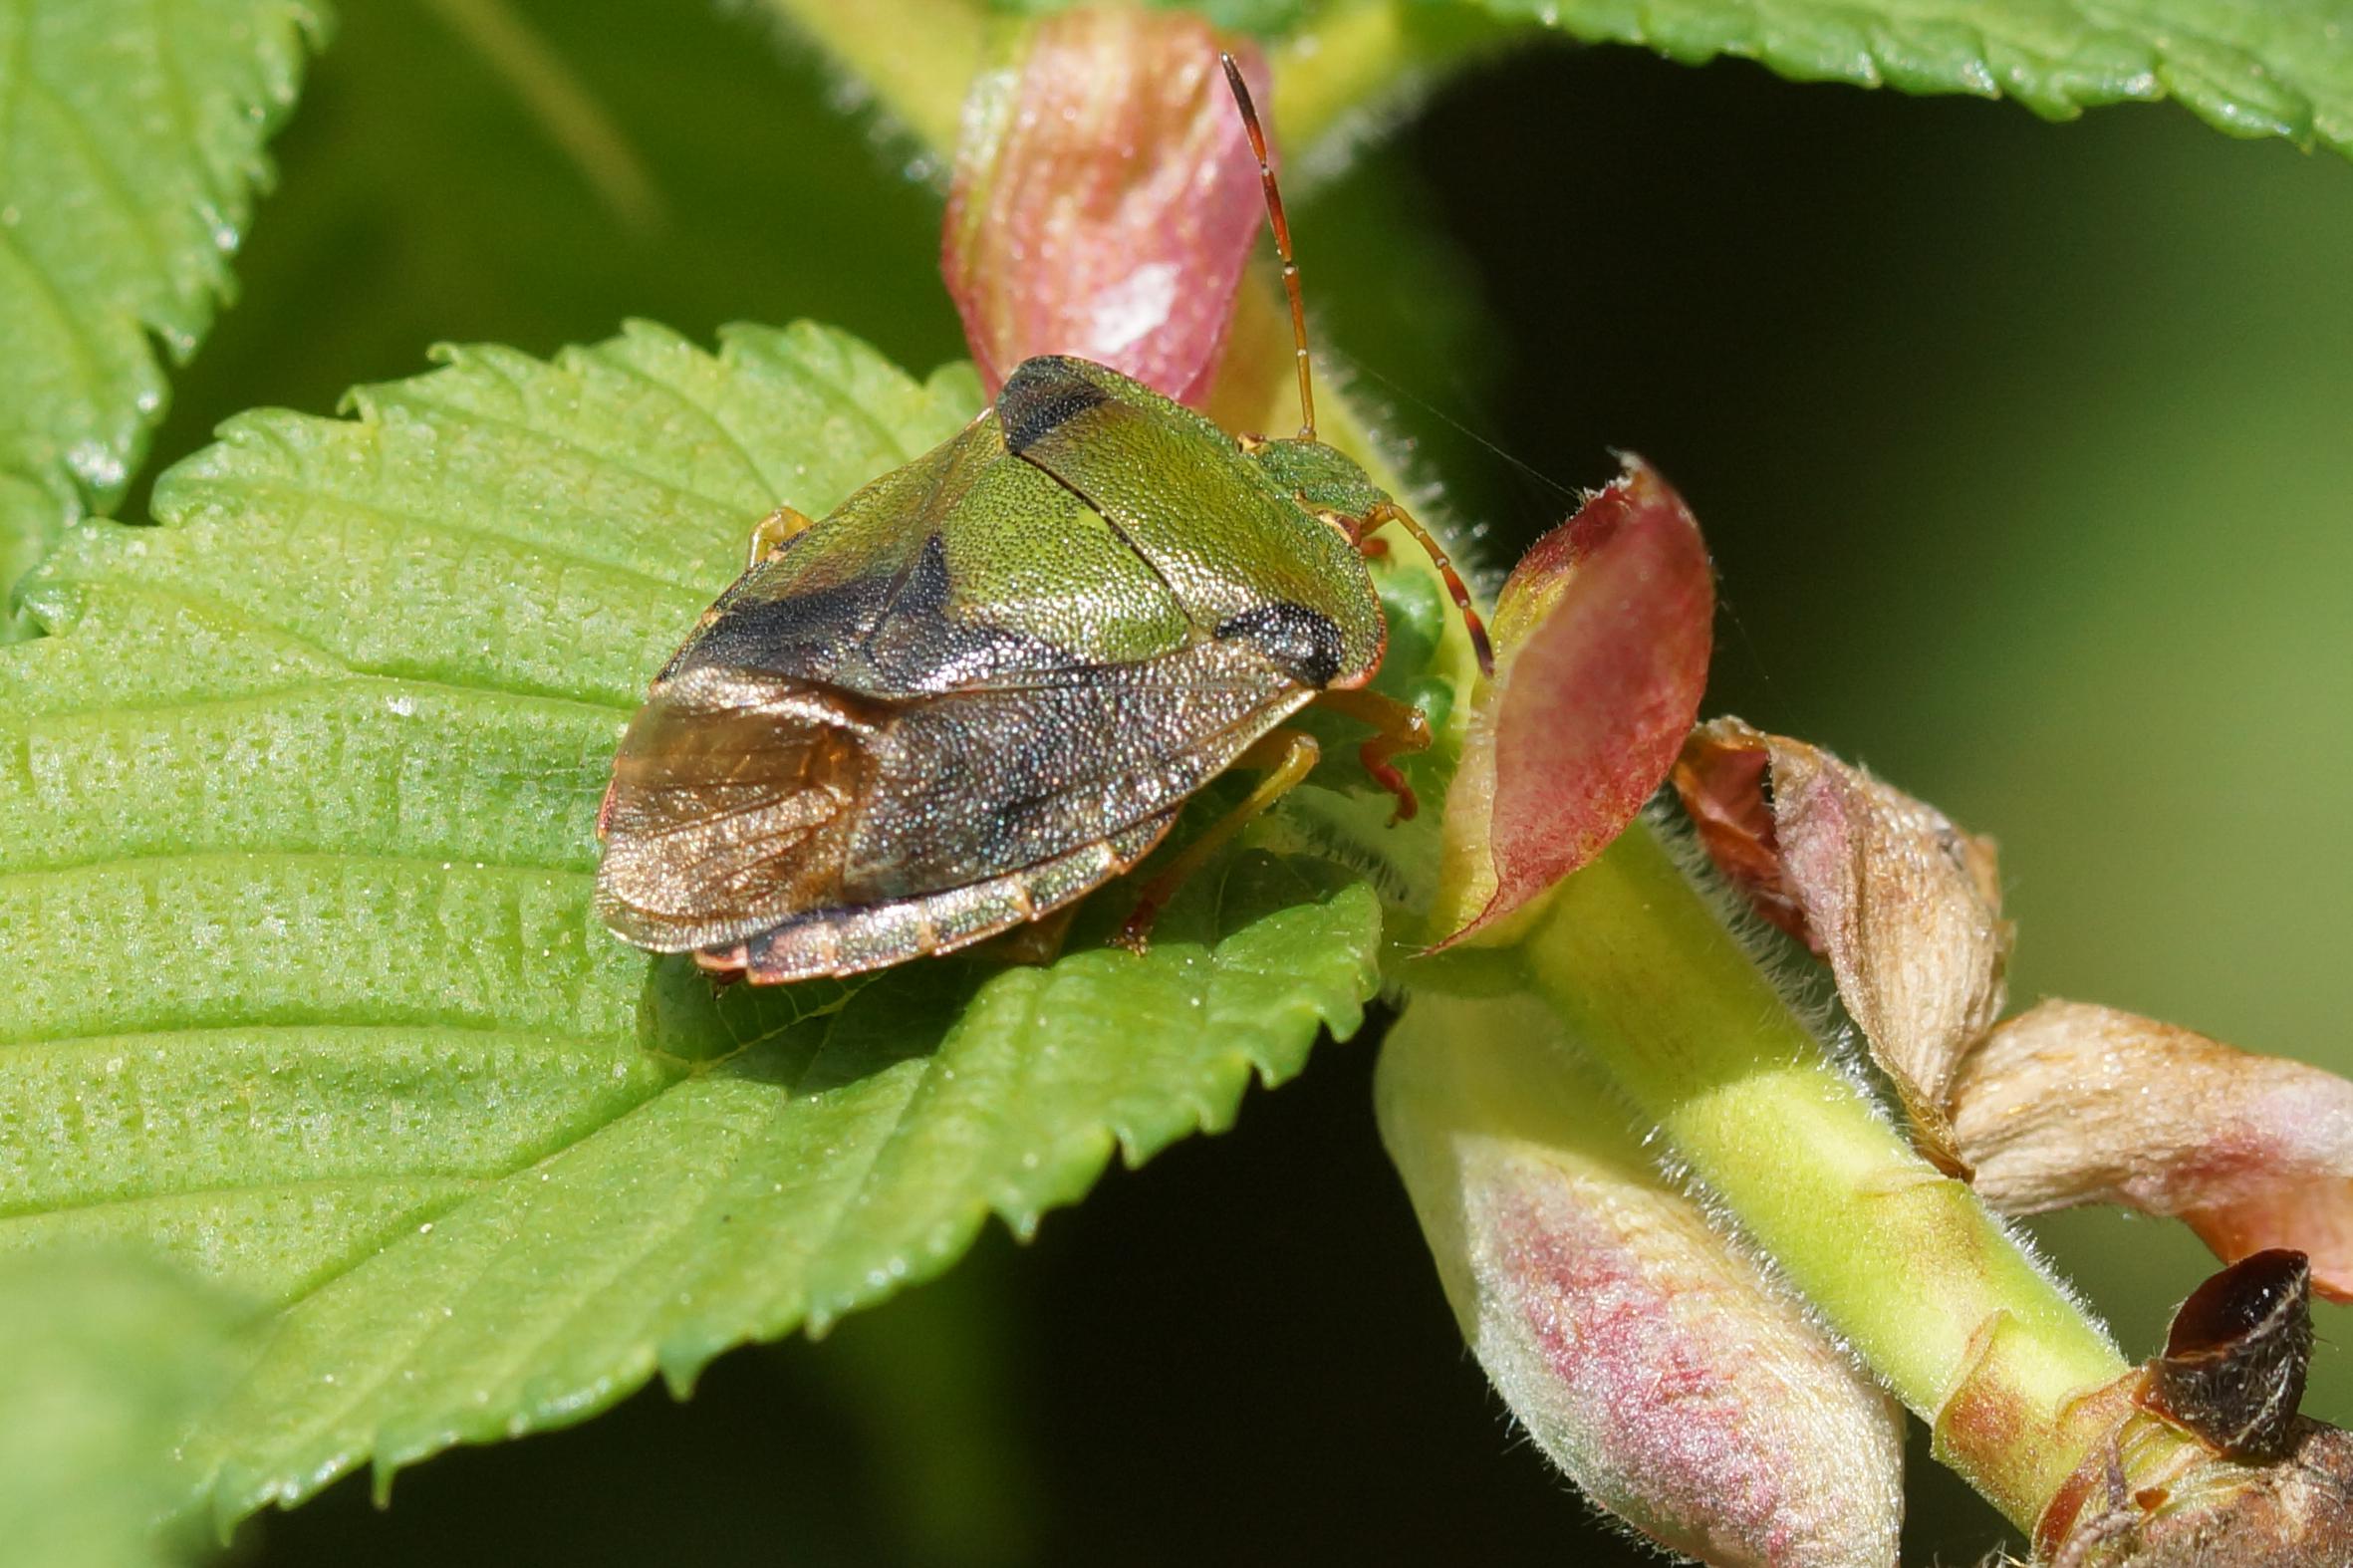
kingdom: Animalia
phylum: Arthropoda
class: Insecta
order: Hemiptera
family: Pentatomidae
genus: Palomena
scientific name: Palomena prasina
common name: Grøn bredtæge
